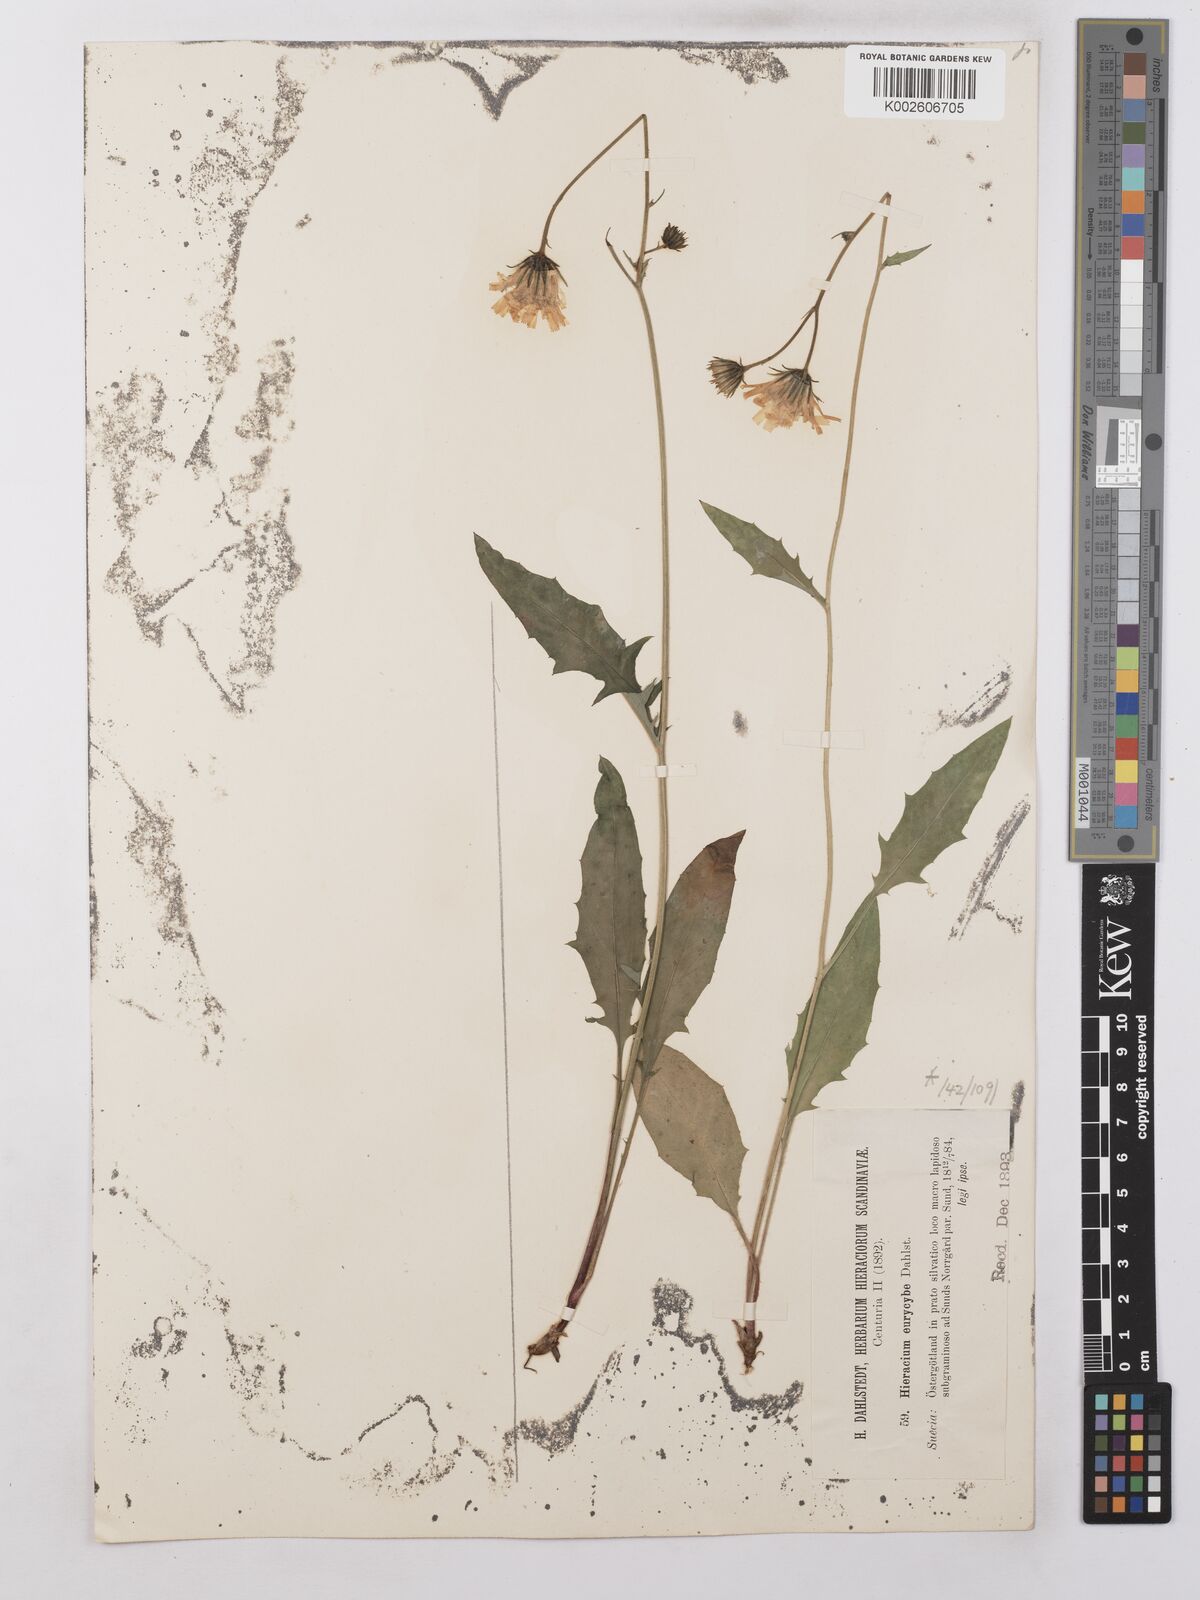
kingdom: Plantae
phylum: Tracheophyta
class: Magnoliopsida
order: Asterales
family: Asteraceae
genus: Hieracium
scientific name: Hieracium lachenalii
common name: Common hawkweed
